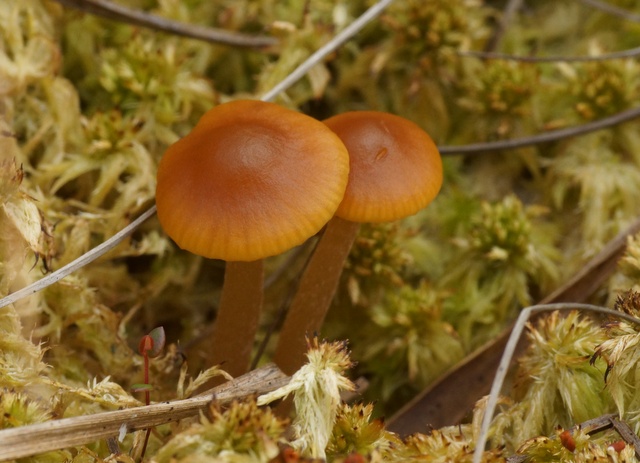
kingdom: Fungi
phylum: Basidiomycota
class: Agaricomycetes
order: Agaricales
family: Hymenogastraceae
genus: Galerina
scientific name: Galerina hybrida
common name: hængesæk-hjelmhat
